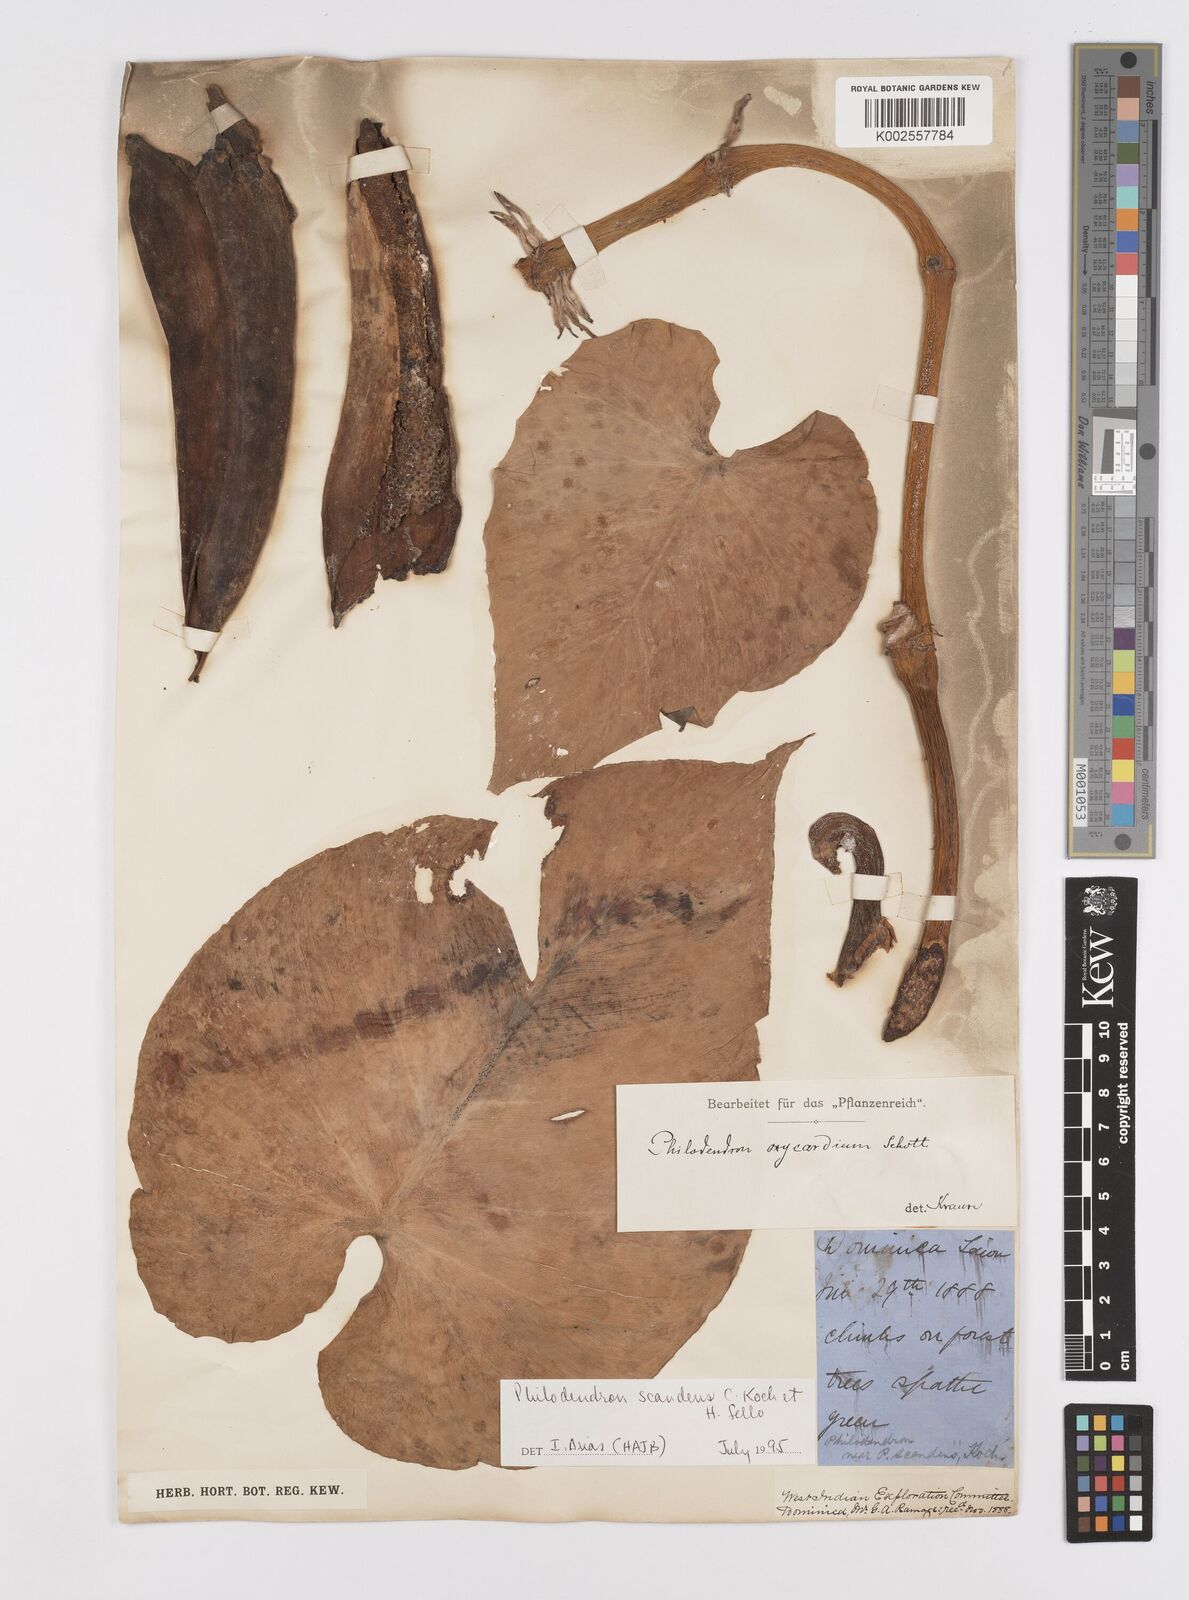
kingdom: Plantae
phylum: Tracheophyta
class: Liliopsida
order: Alismatales
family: Araceae
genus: Philodendron
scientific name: Philodendron hederaceum
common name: Vilevine
